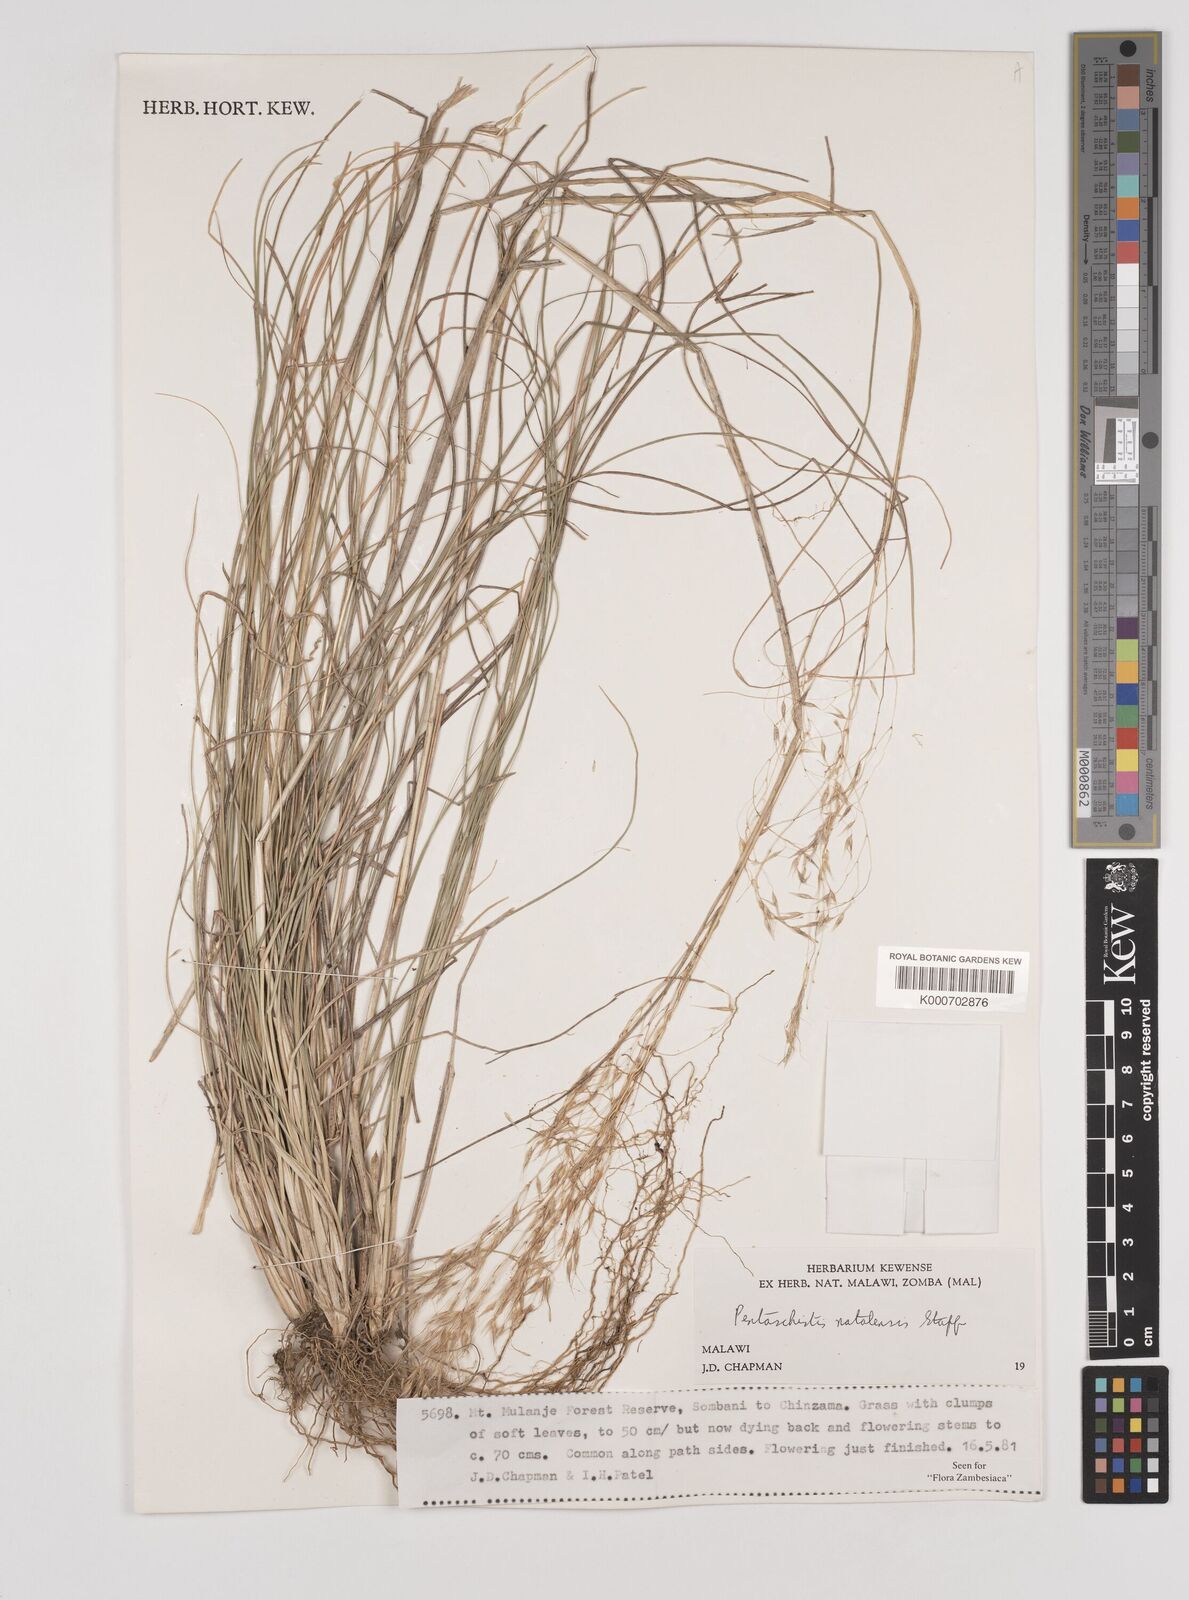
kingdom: Plantae
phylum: Tracheophyta
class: Liliopsida
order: Poales
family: Poaceae
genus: Pentameris
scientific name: Pentameris natalensis
